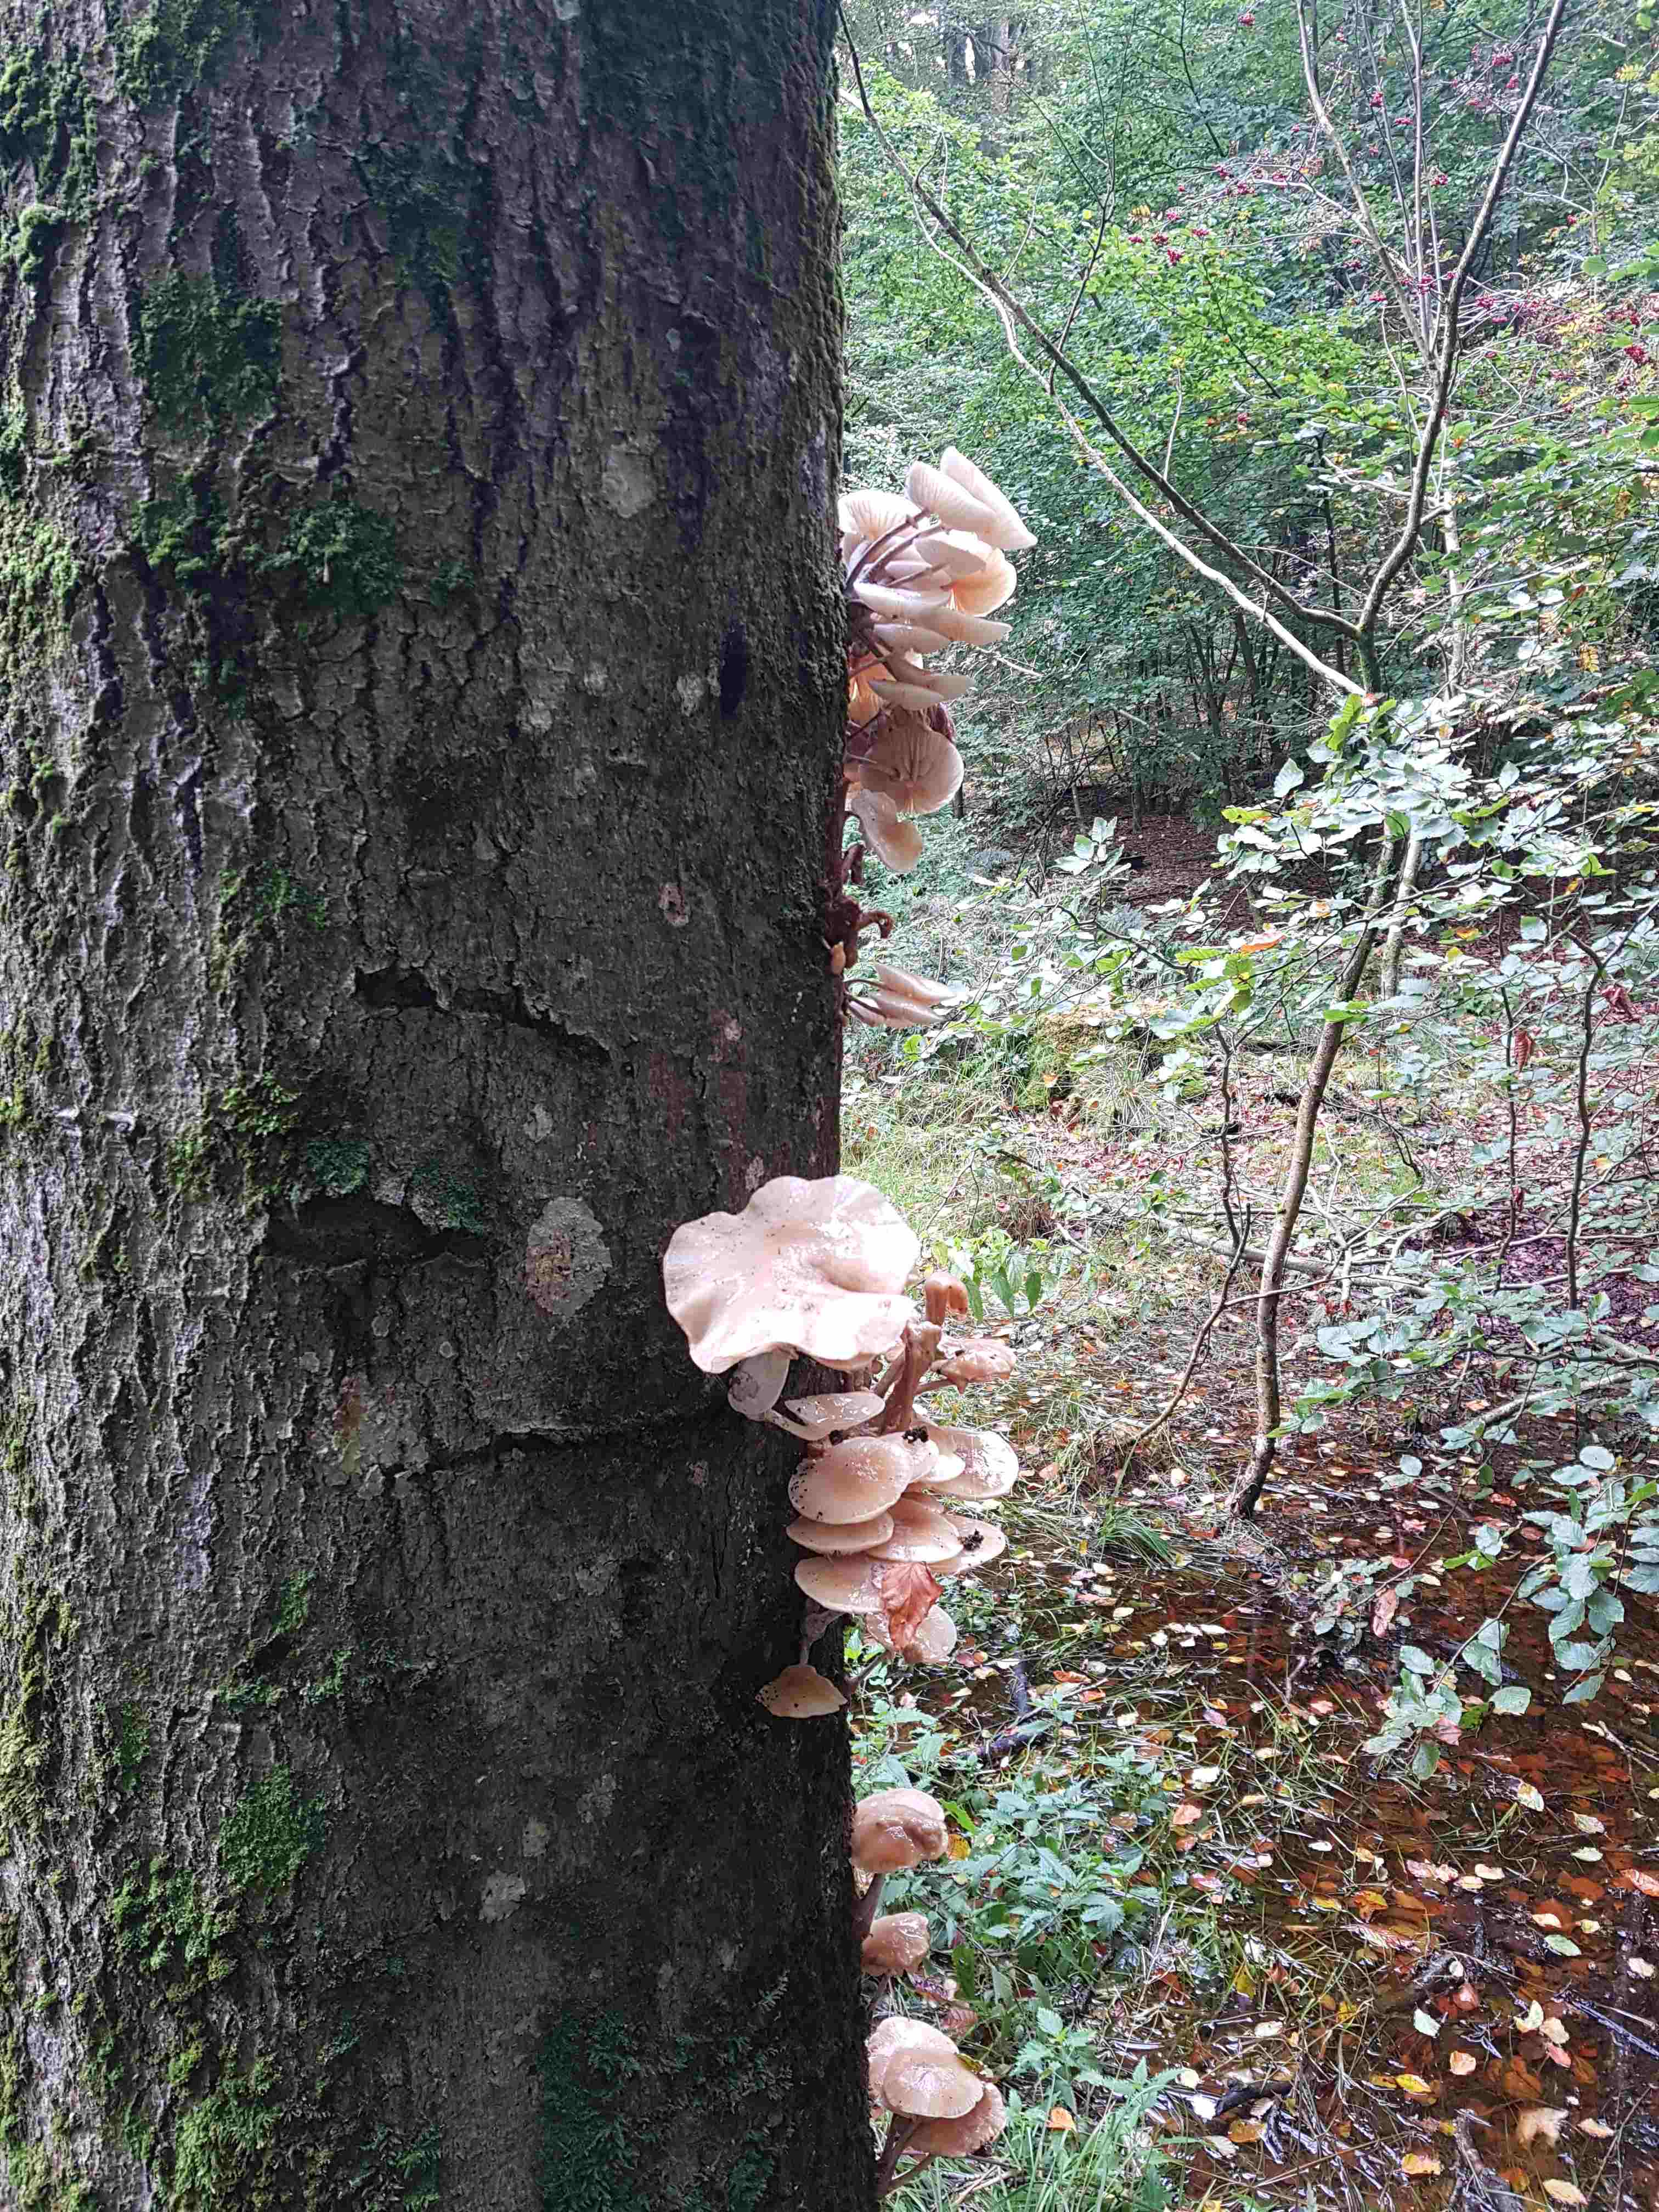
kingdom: Fungi
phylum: Basidiomycota
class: Agaricomycetes
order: Agaricales
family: Physalacriaceae
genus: Mucidula
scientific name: Mucidula mucida
